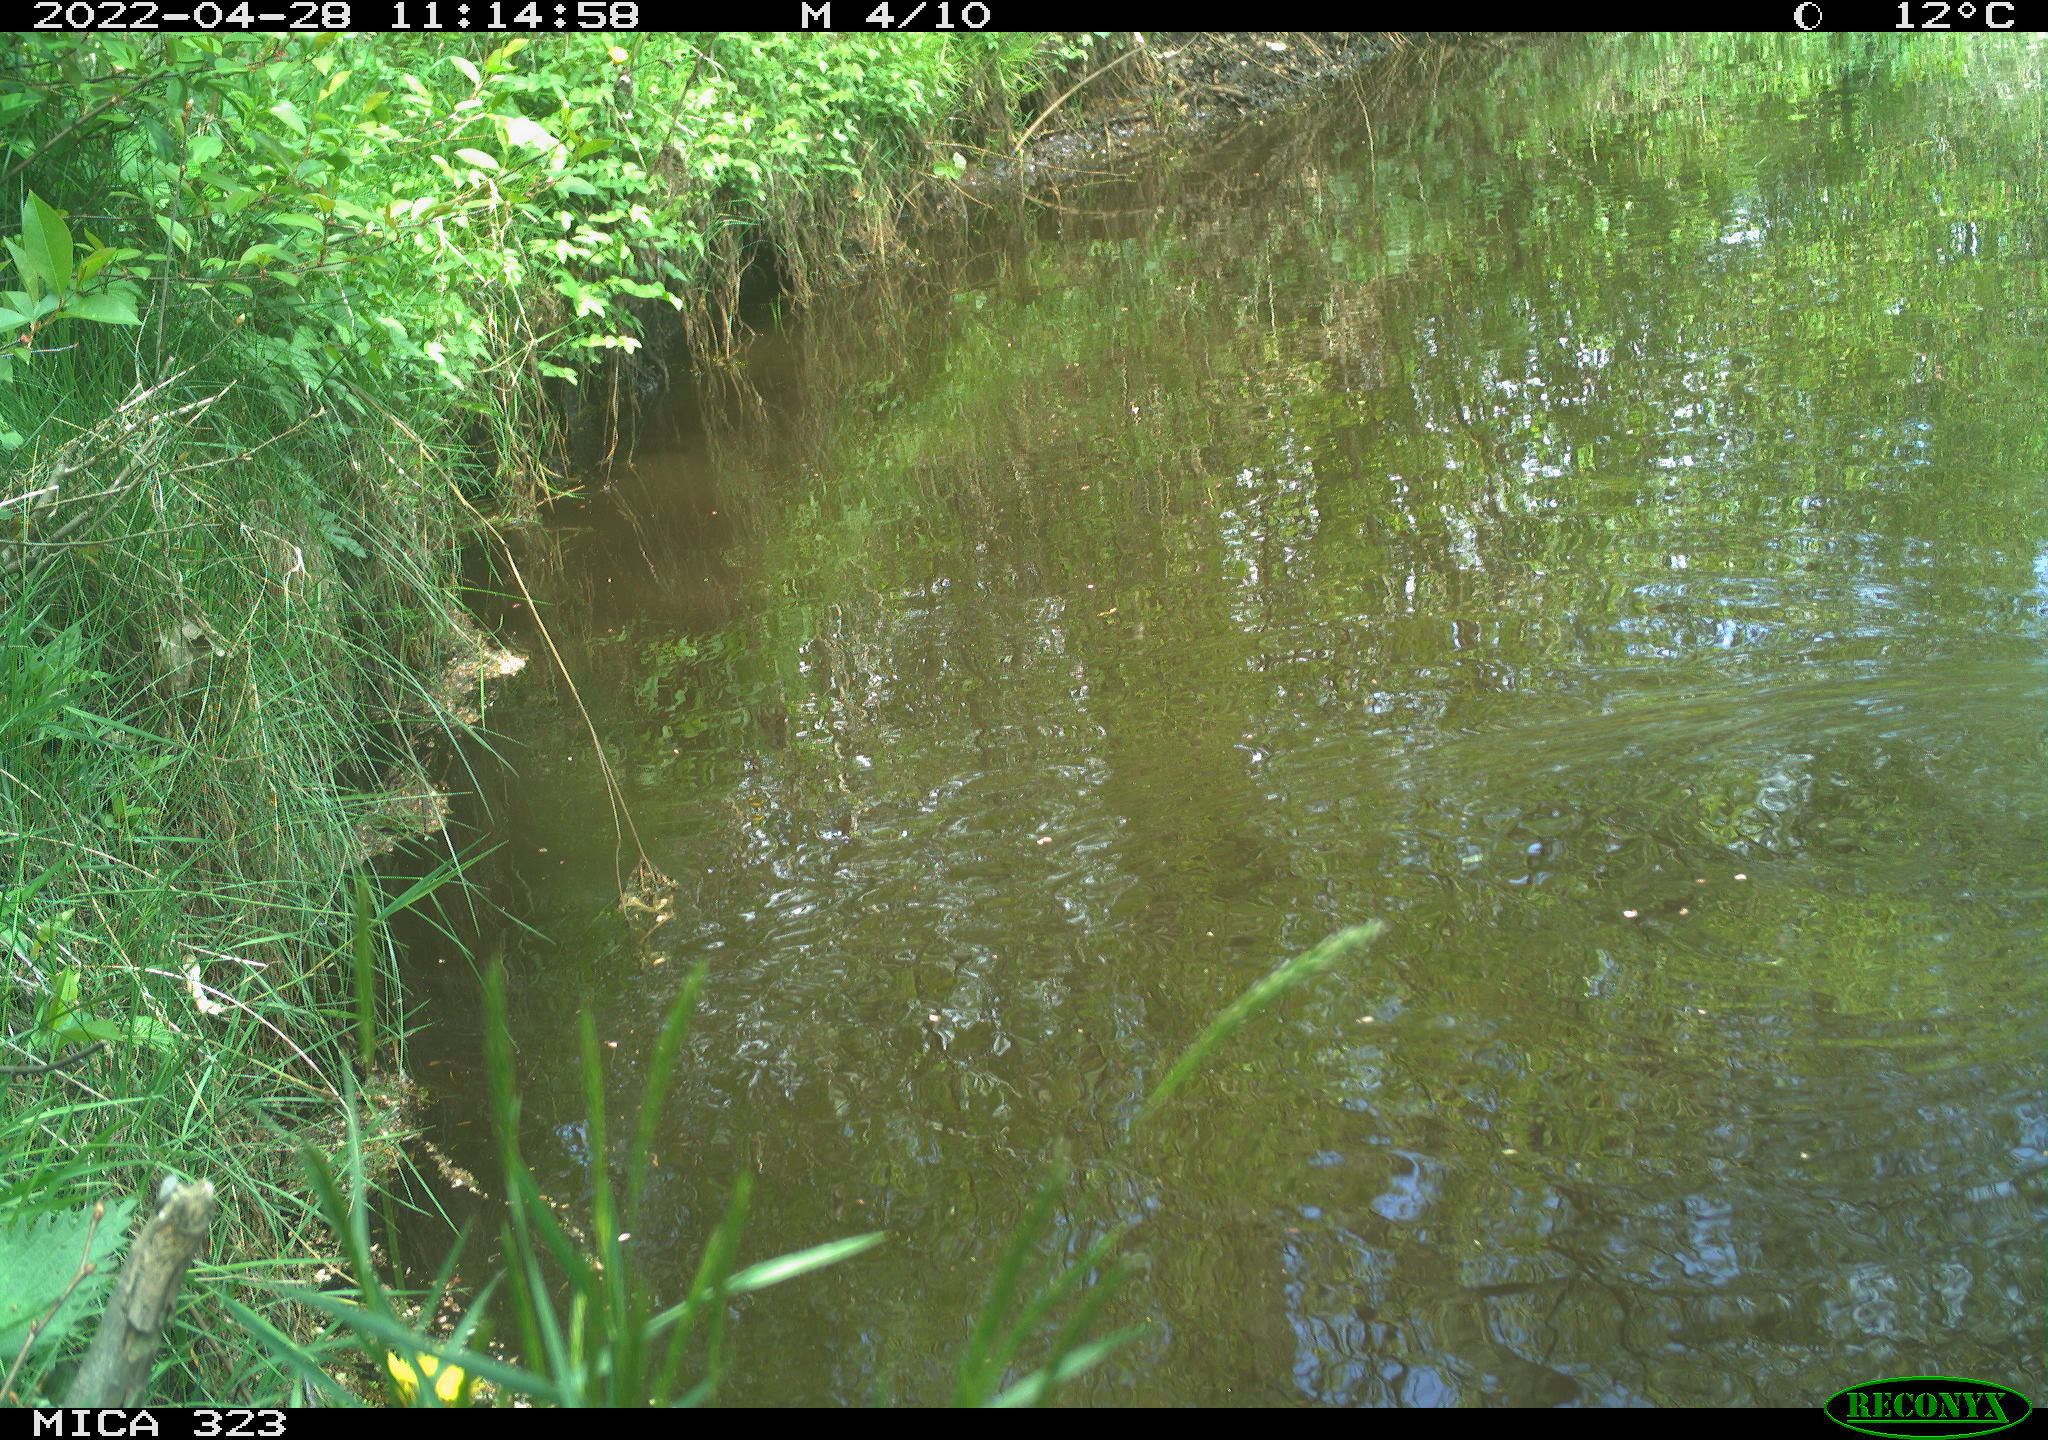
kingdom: Animalia
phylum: Chordata
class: Aves
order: Gruiformes
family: Rallidae
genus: Gallinula
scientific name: Gallinula chloropus
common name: Common moorhen
